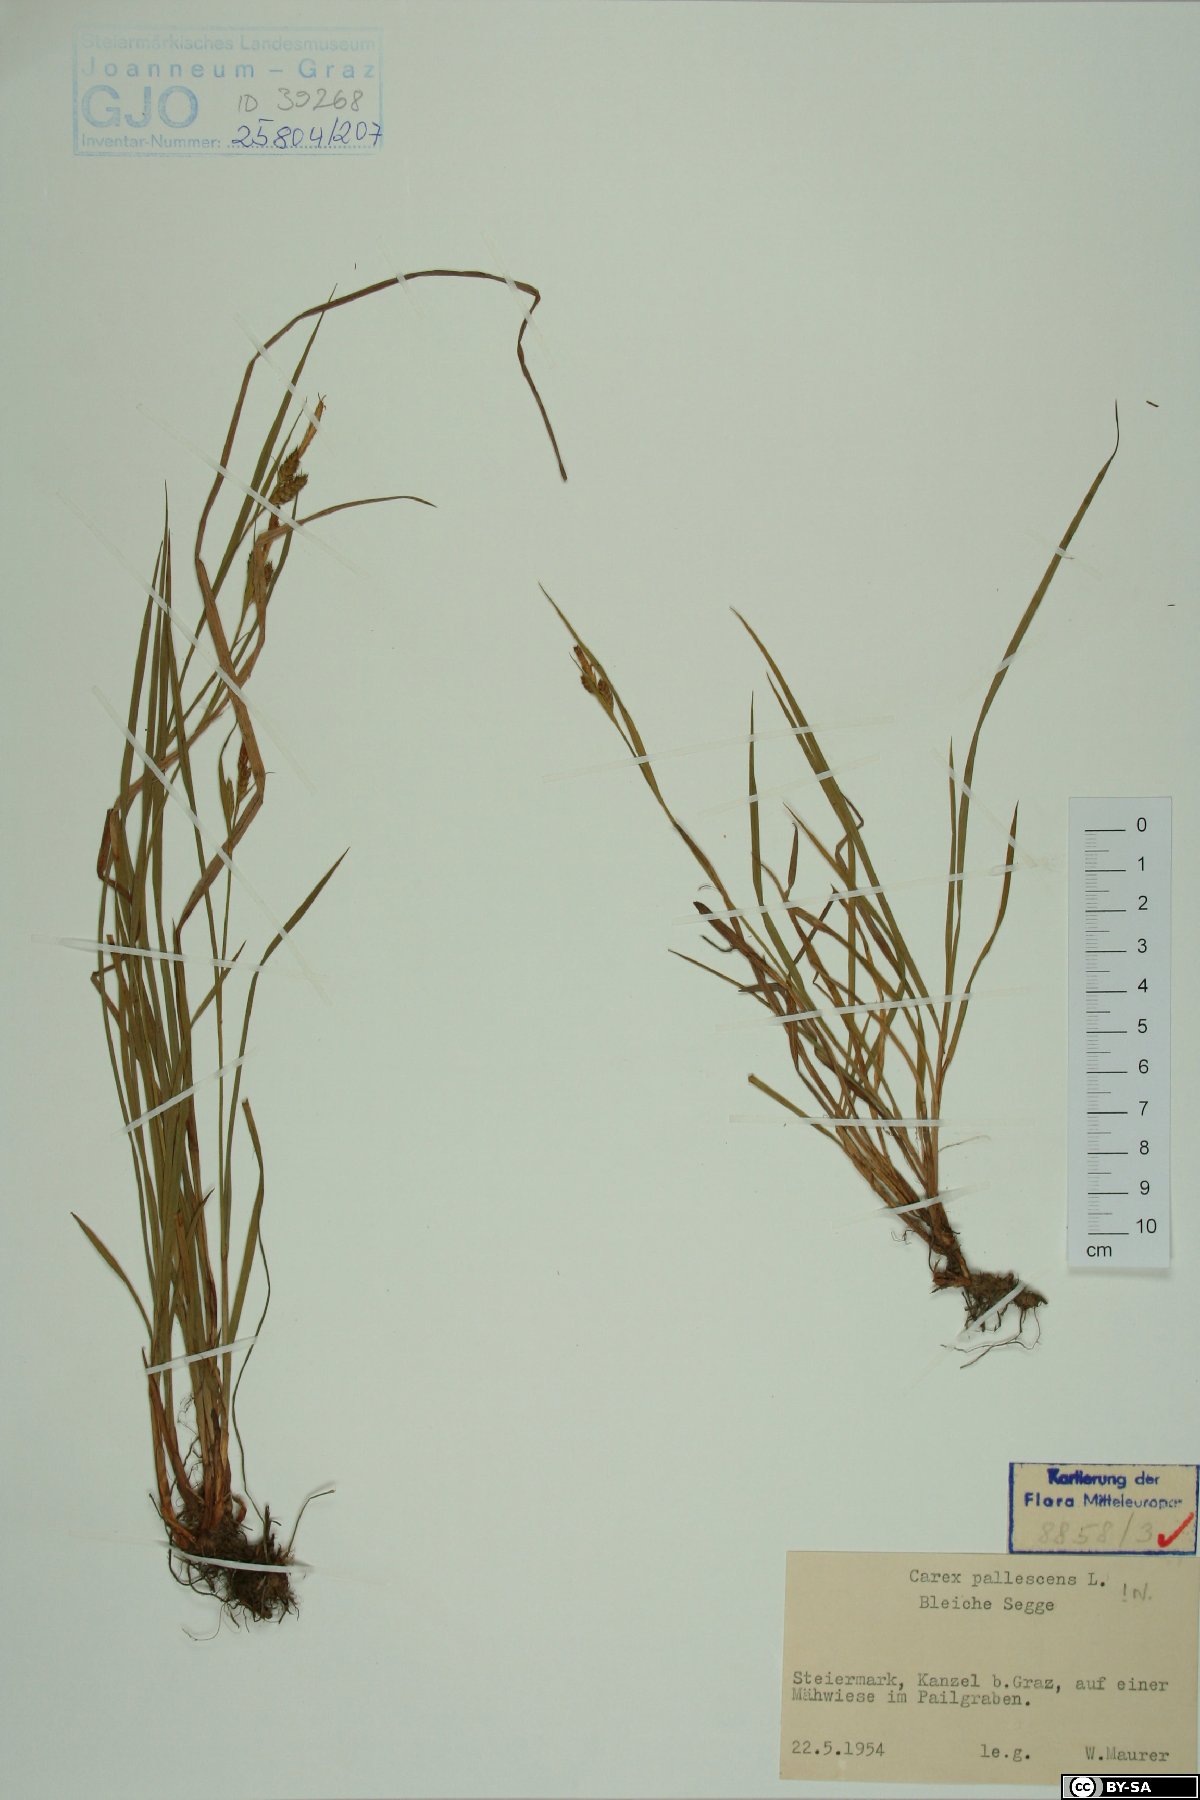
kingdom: Plantae
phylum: Tracheophyta
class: Liliopsida
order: Poales
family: Cyperaceae
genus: Carex
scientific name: Carex pallescens
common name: Pale sedge
